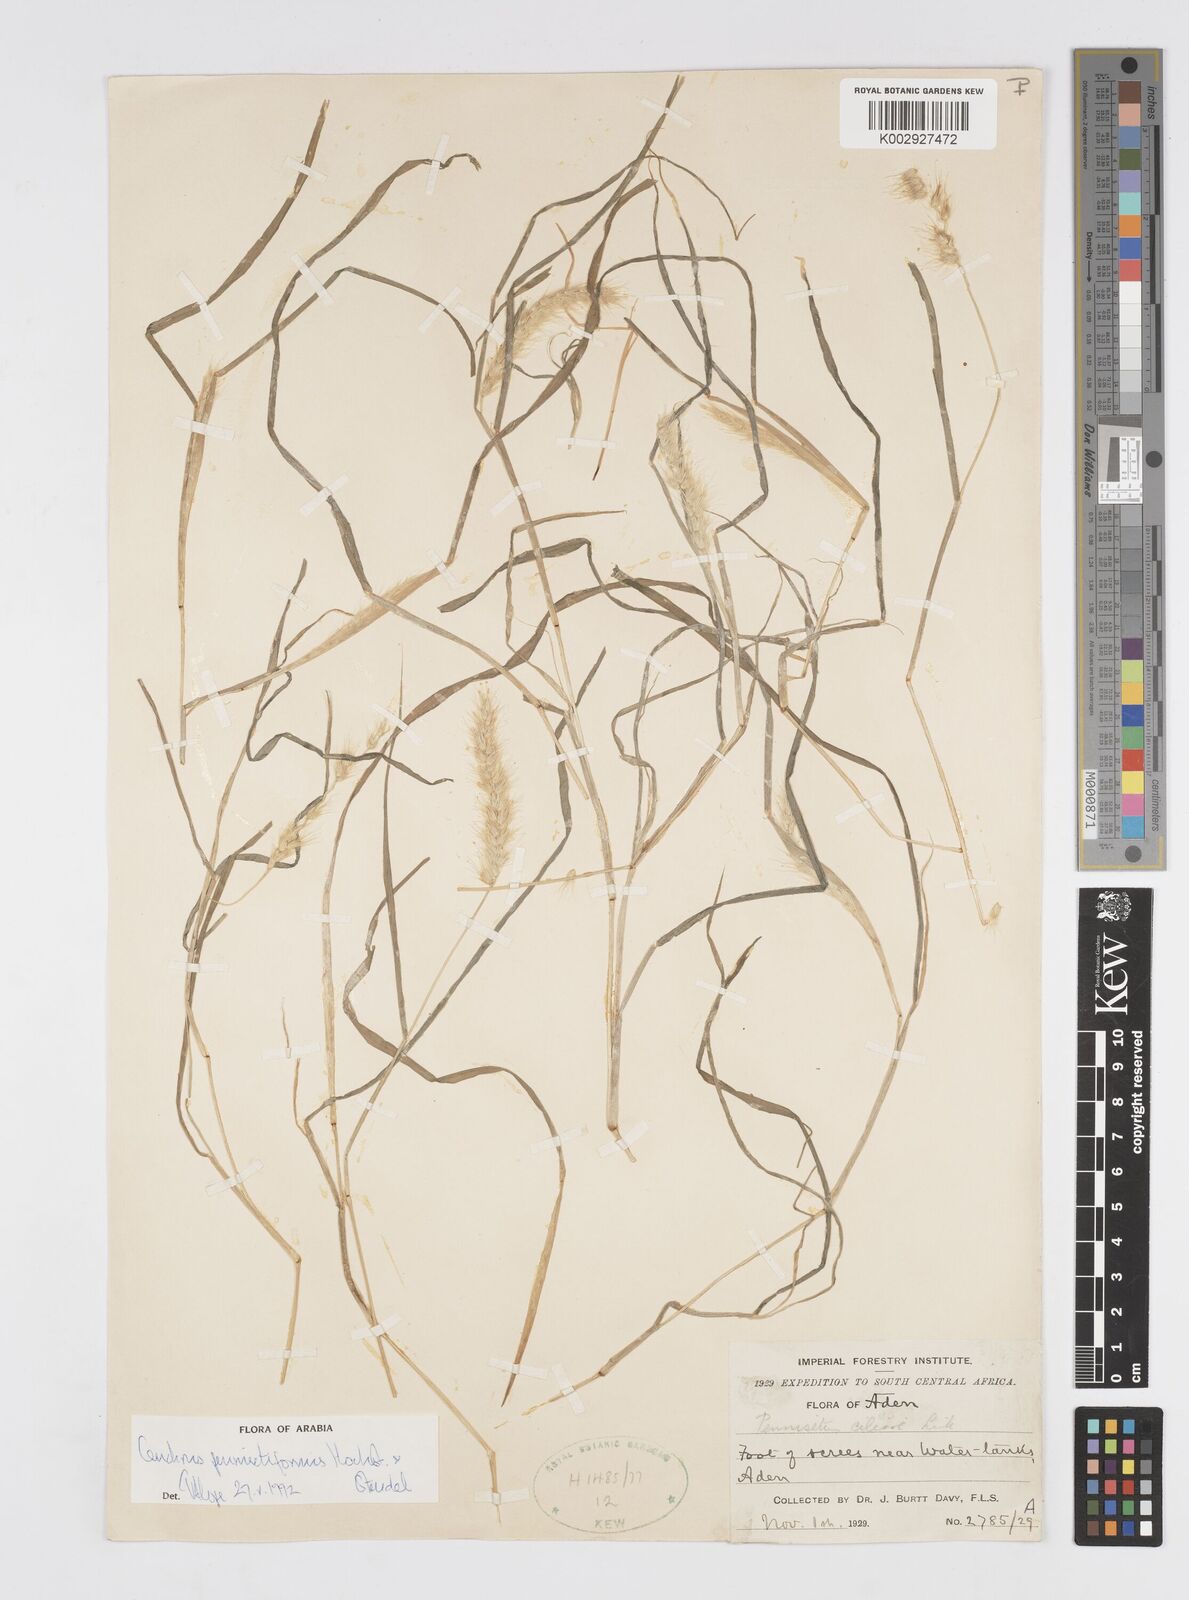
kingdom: Plantae
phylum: Tracheophyta
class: Liliopsida
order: Poales
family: Poaceae
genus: Cenchrus
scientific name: Cenchrus pennisetiformis
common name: Cloncurry
